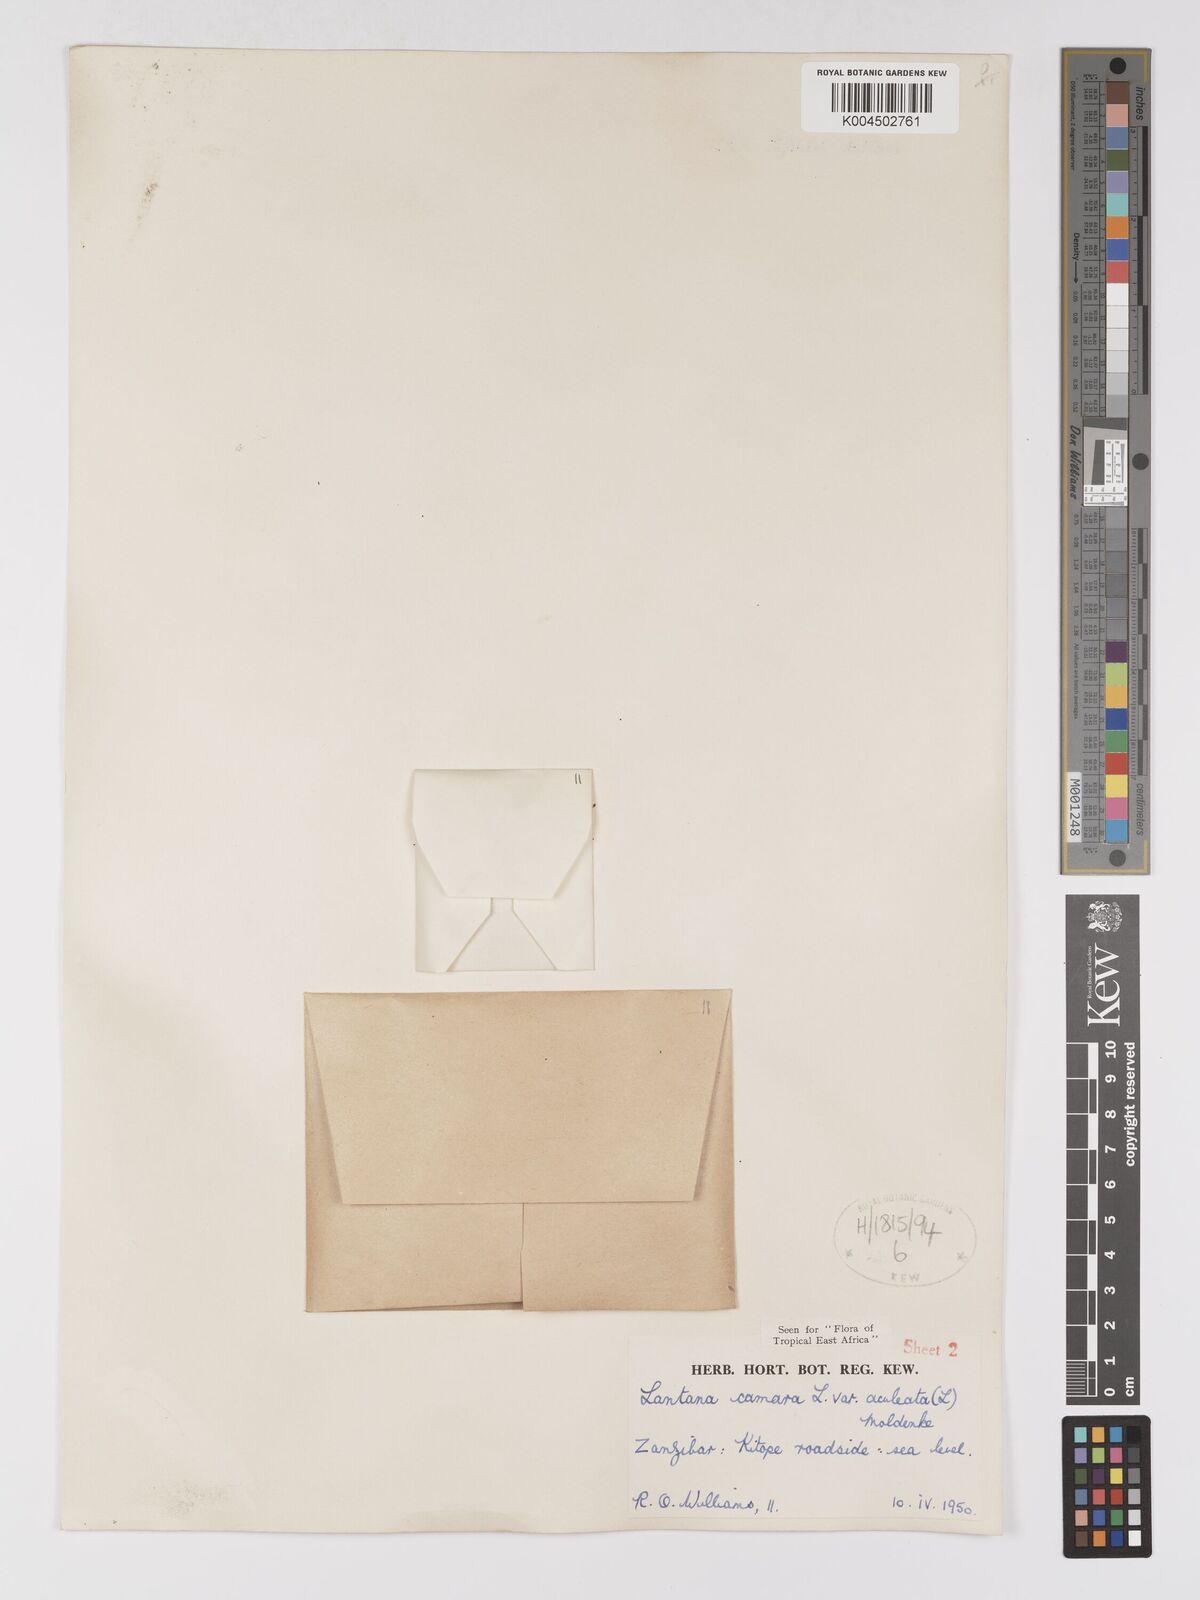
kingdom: Plantae
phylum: Tracheophyta
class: Magnoliopsida
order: Lamiales
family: Verbenaceae
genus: Lantana
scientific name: Lantana camara
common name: Lantana
